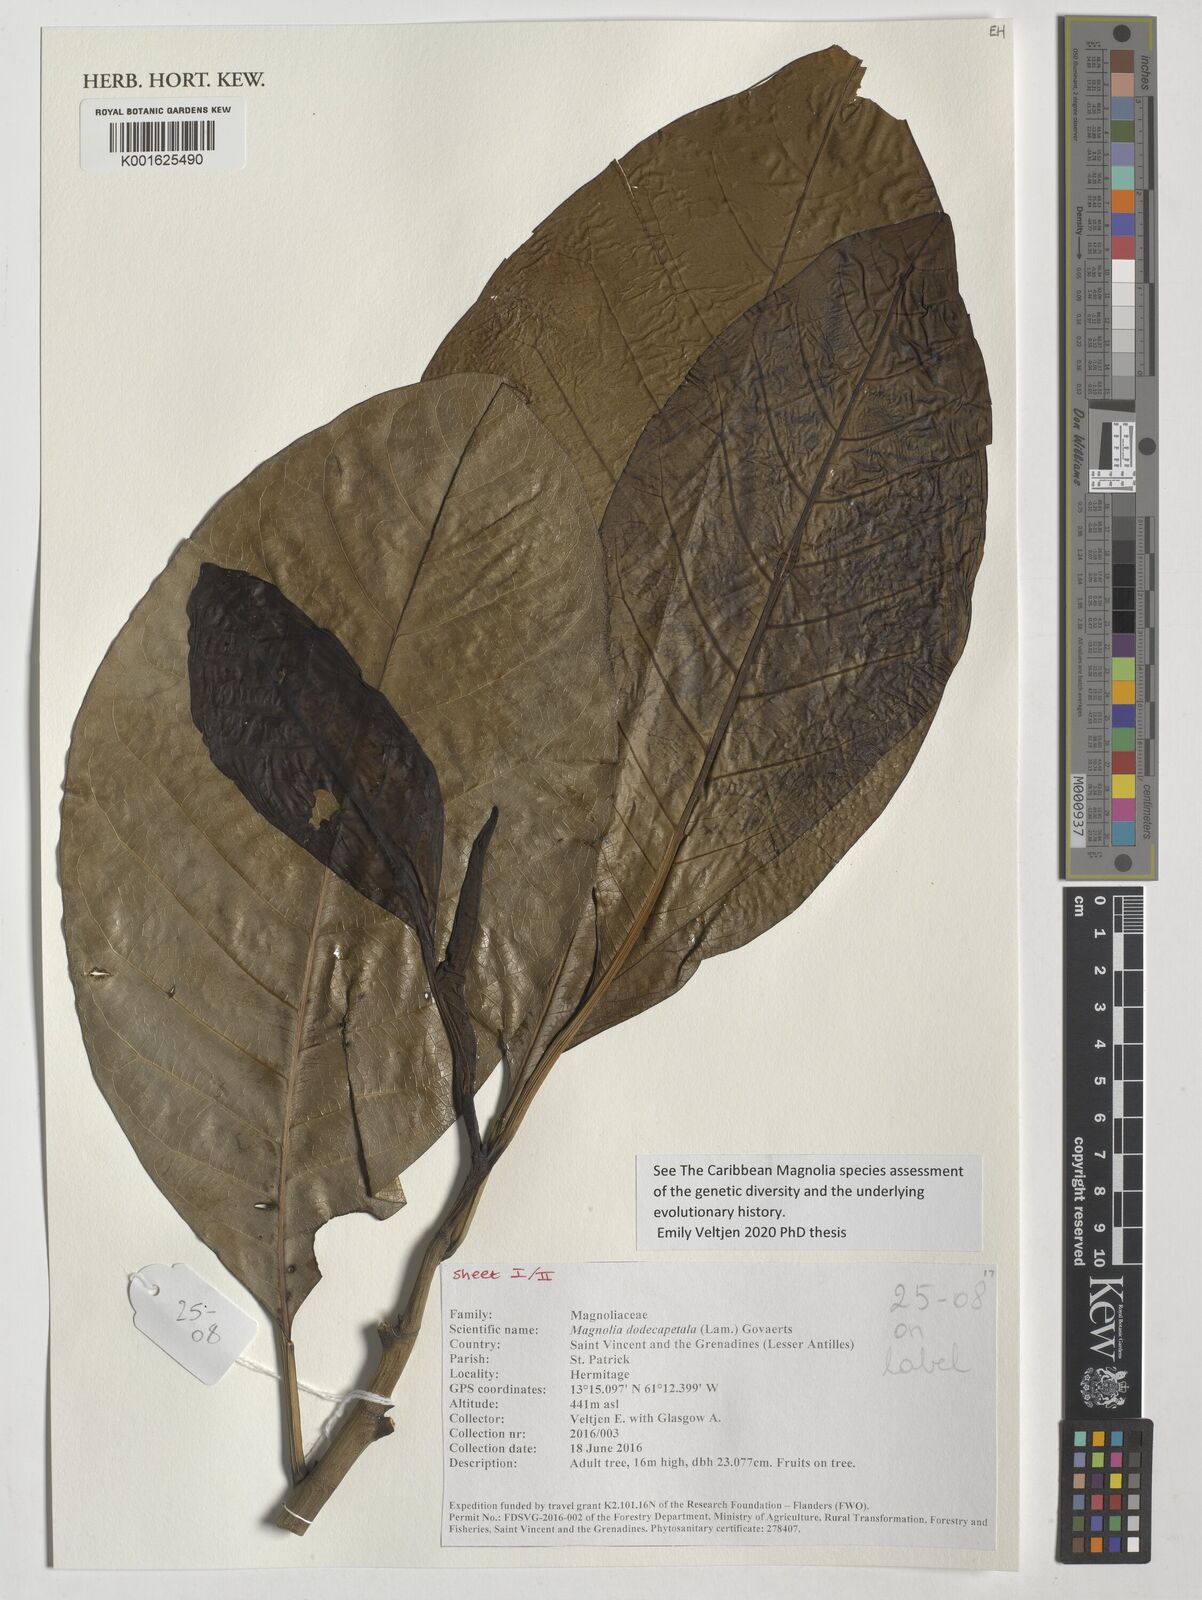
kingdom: Plantae
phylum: Tracheophyta
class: Magnoliopsida
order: Magnoliales
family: Magnoliaceae
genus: Magnolia
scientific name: Magnolia dodecapetala
